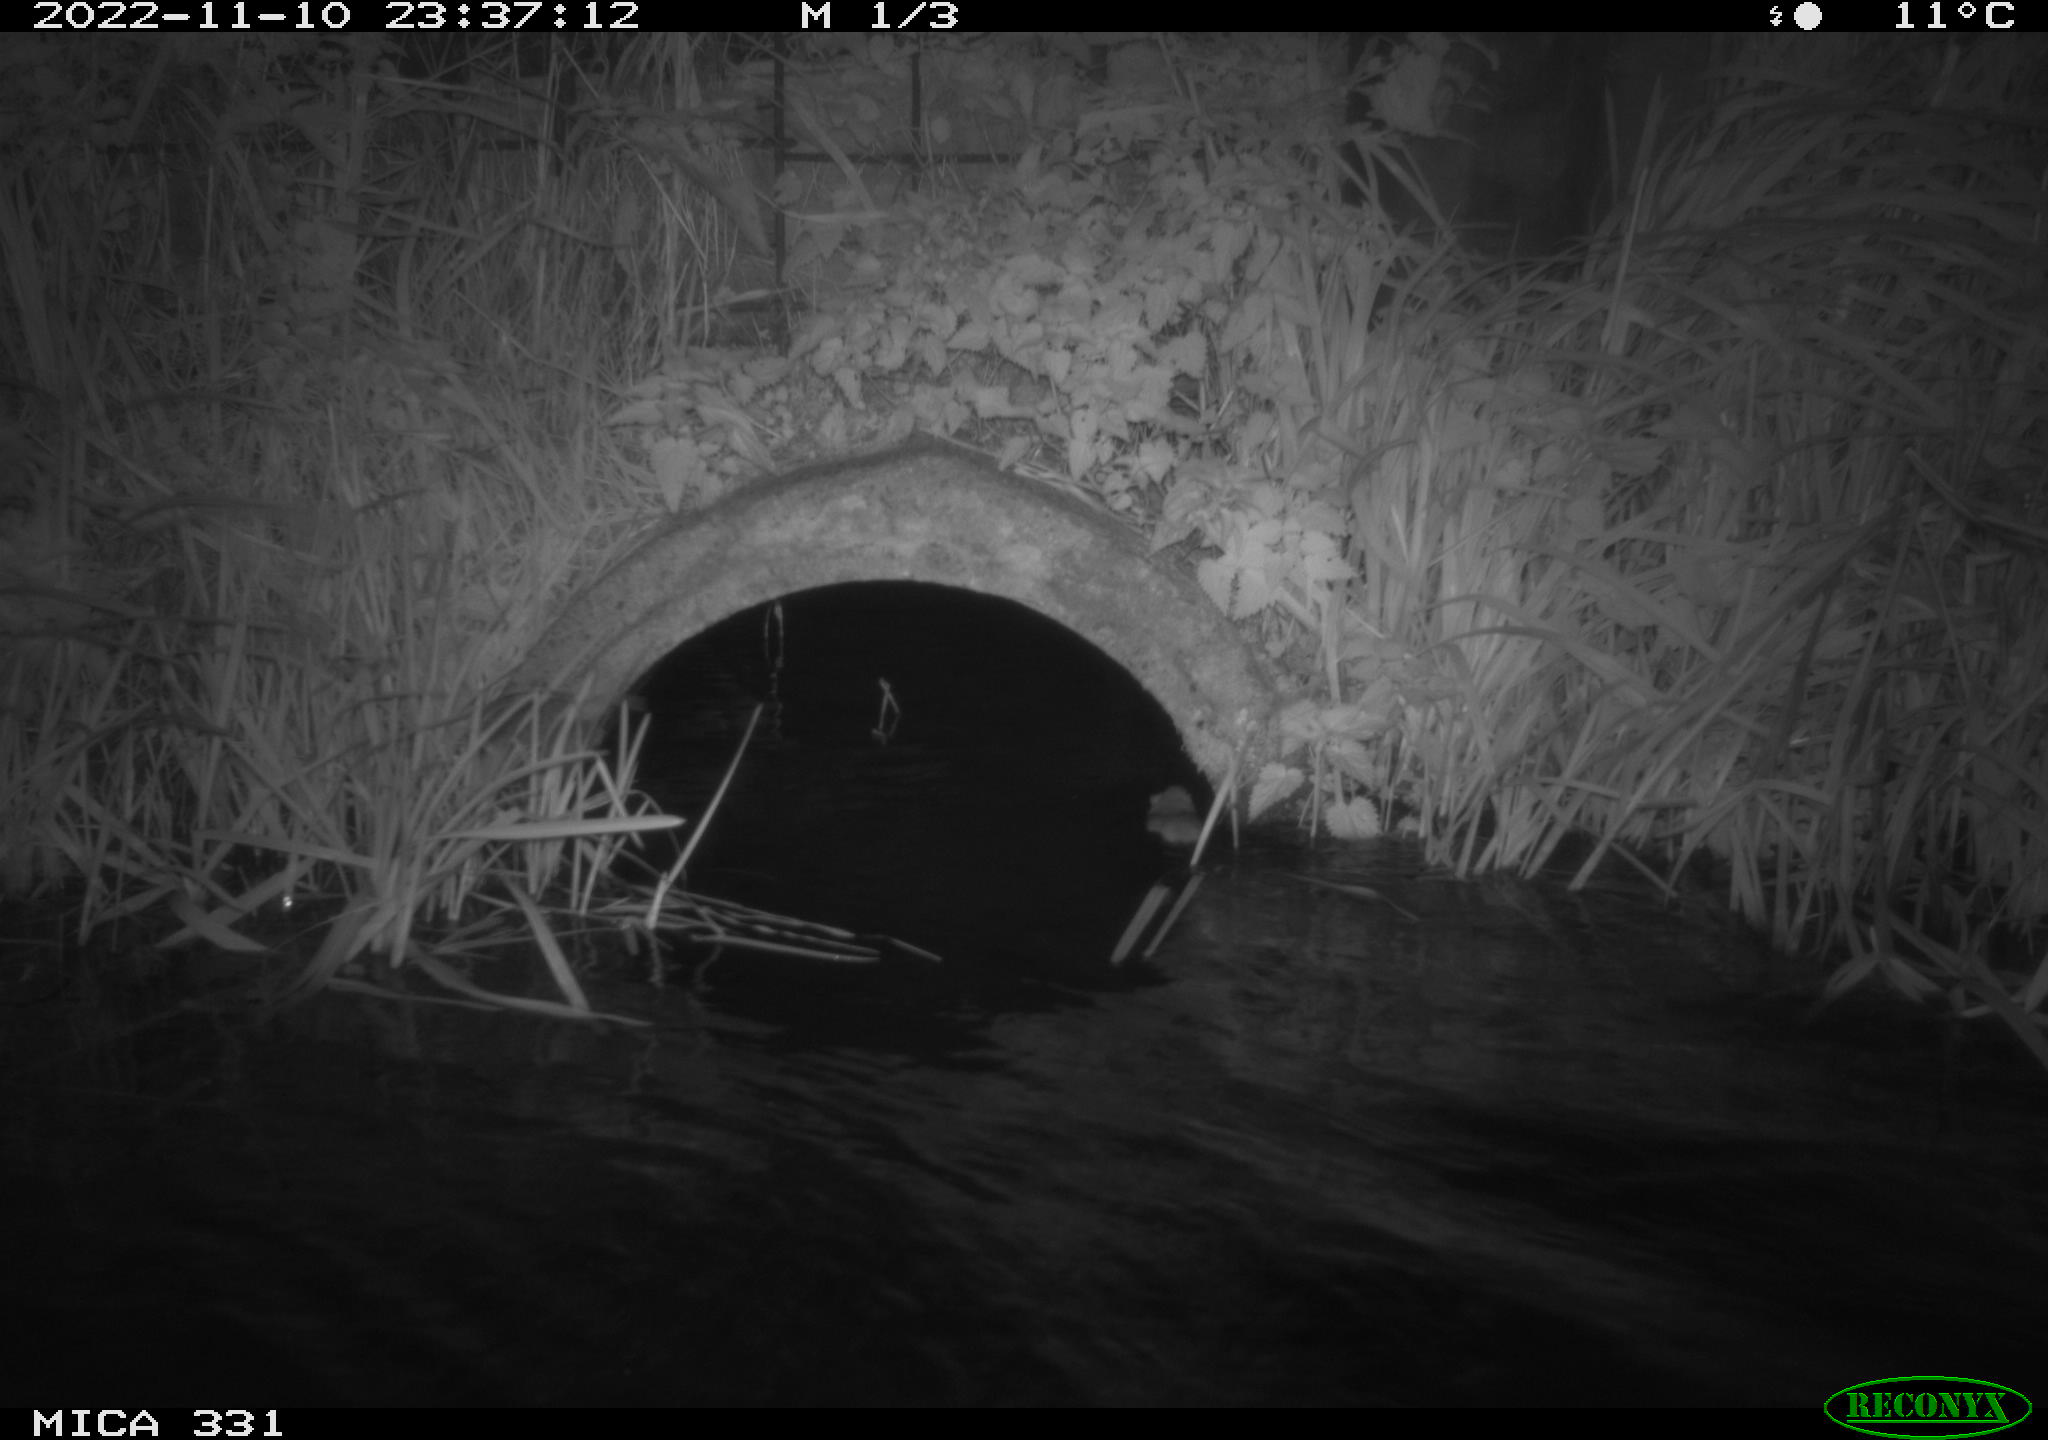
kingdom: Animalia
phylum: Chordata
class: Mammalia
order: Rodentia
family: Muridae
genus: Rattus
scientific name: Rattus norvegicus
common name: Brown rat
